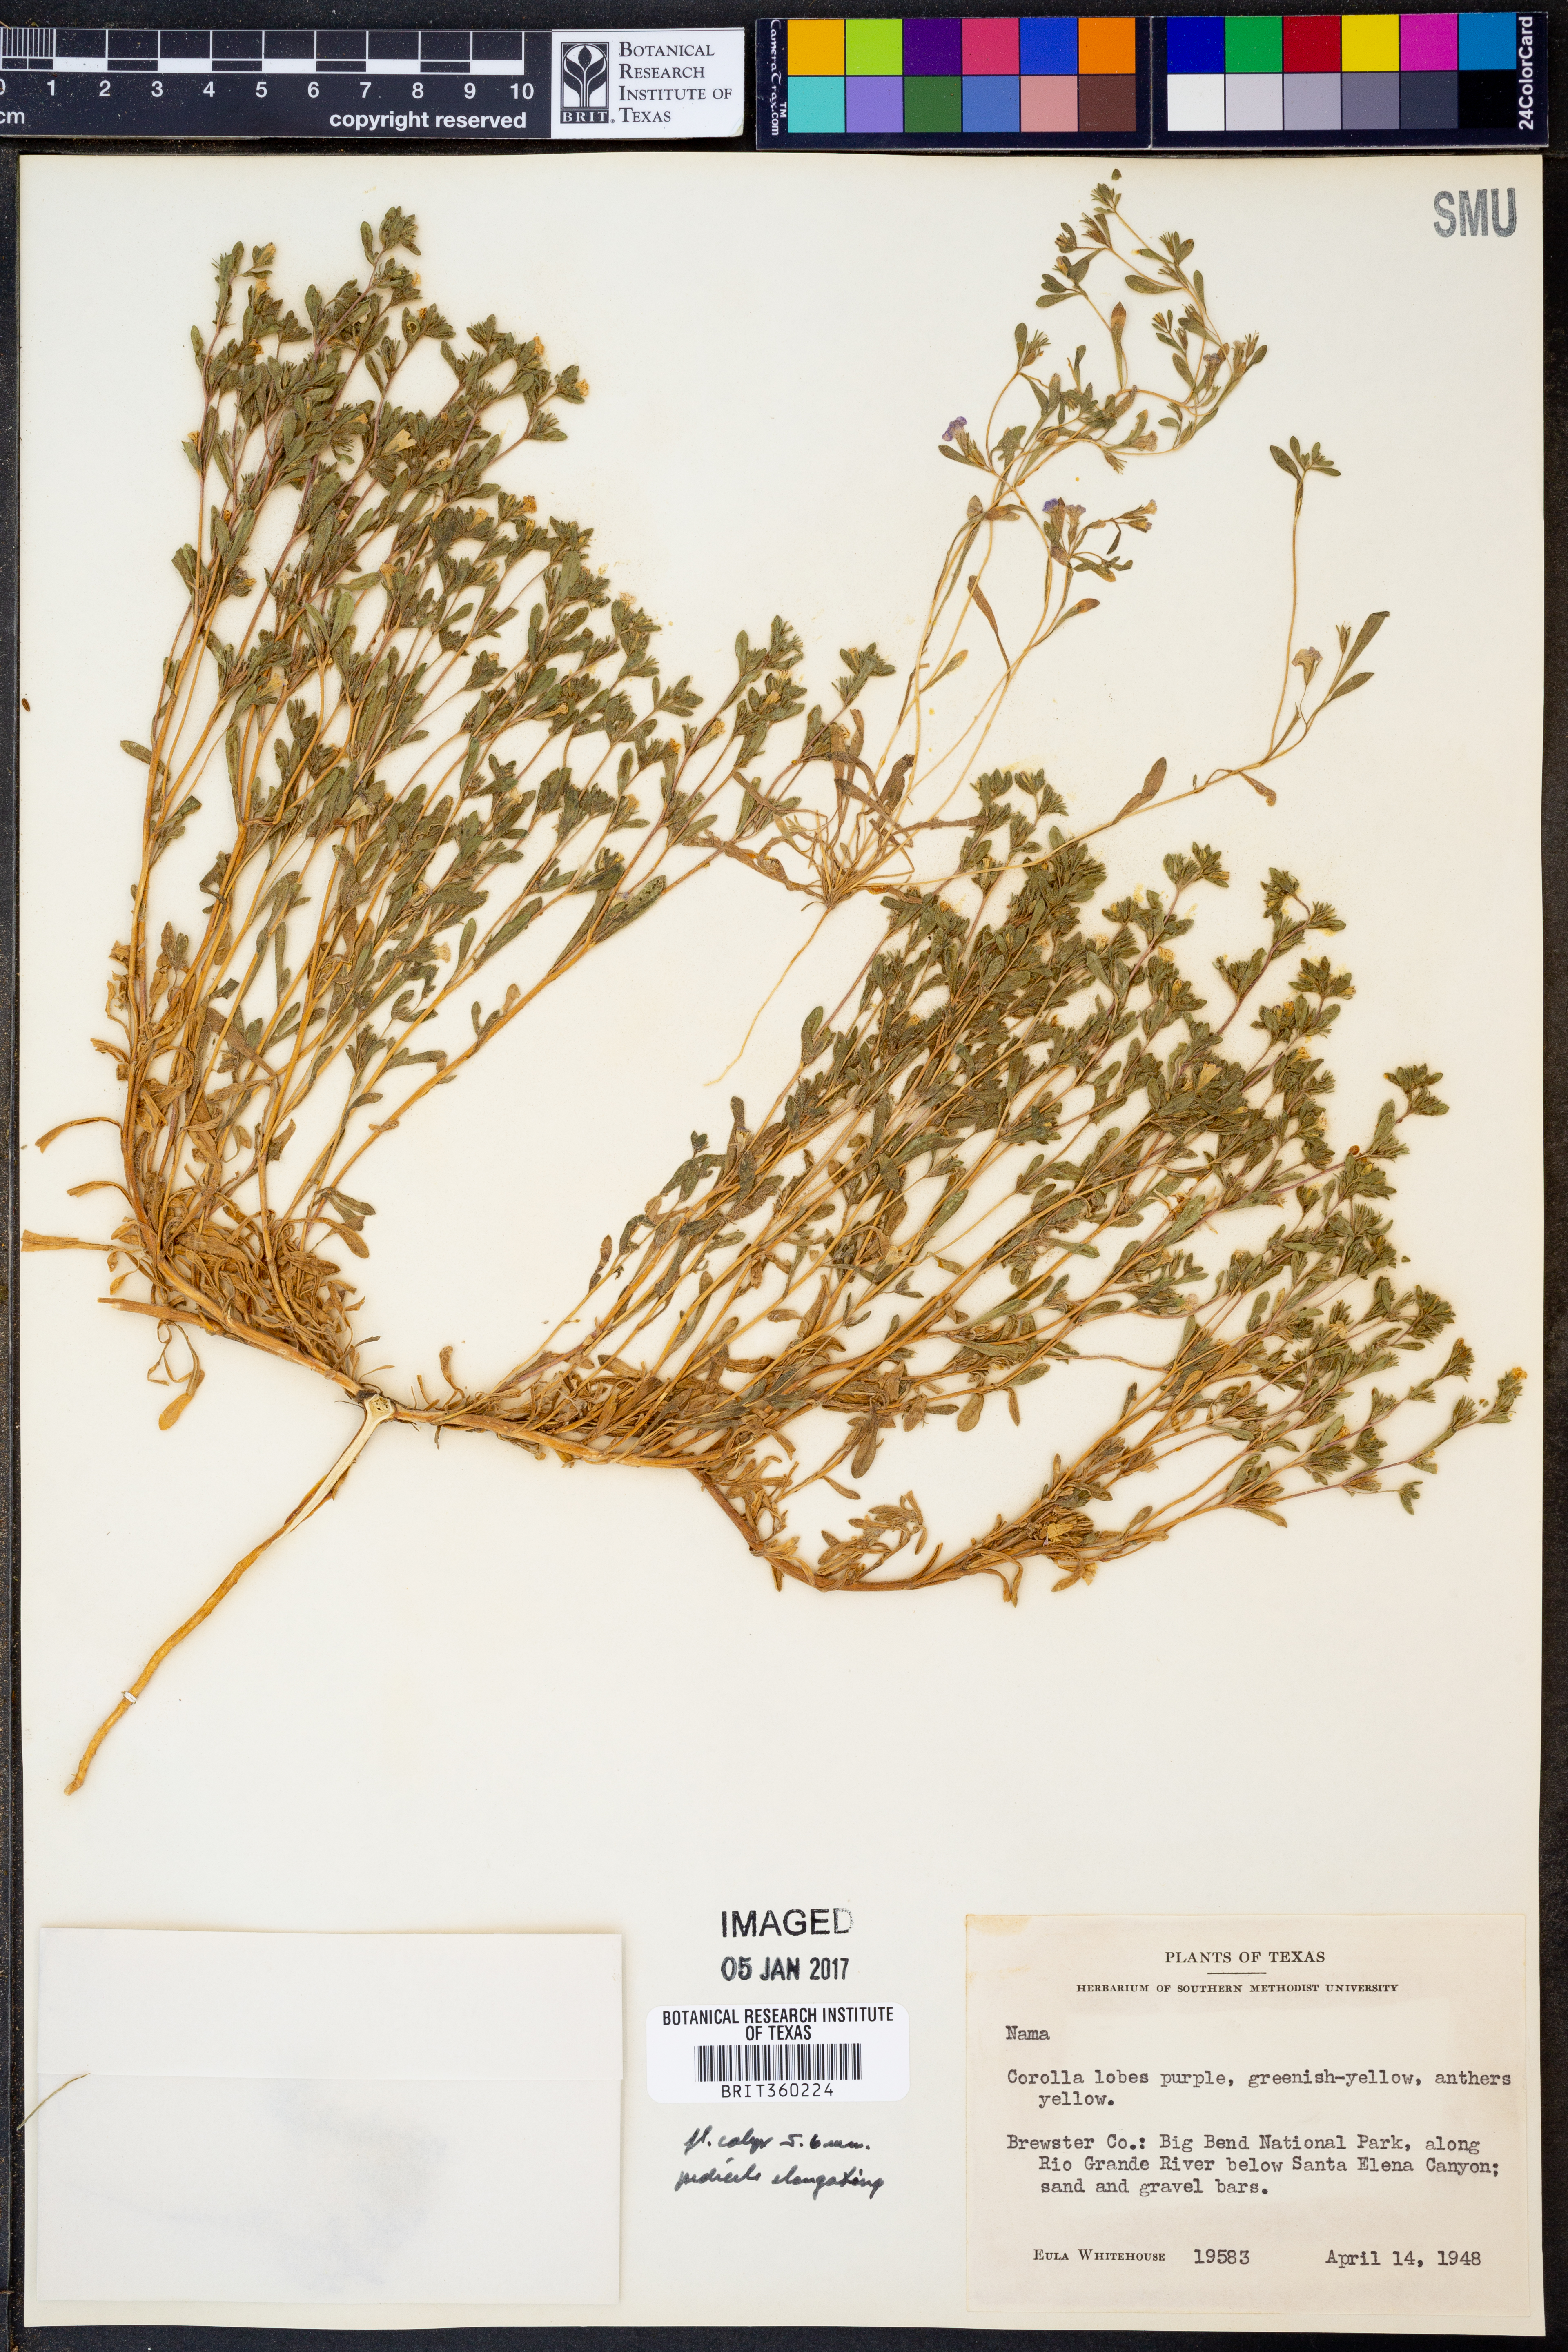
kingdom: Plantae
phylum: Tracheophyta
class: Magnoliopsida
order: Boraginales
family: Namaceae
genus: Nama
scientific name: Nama
